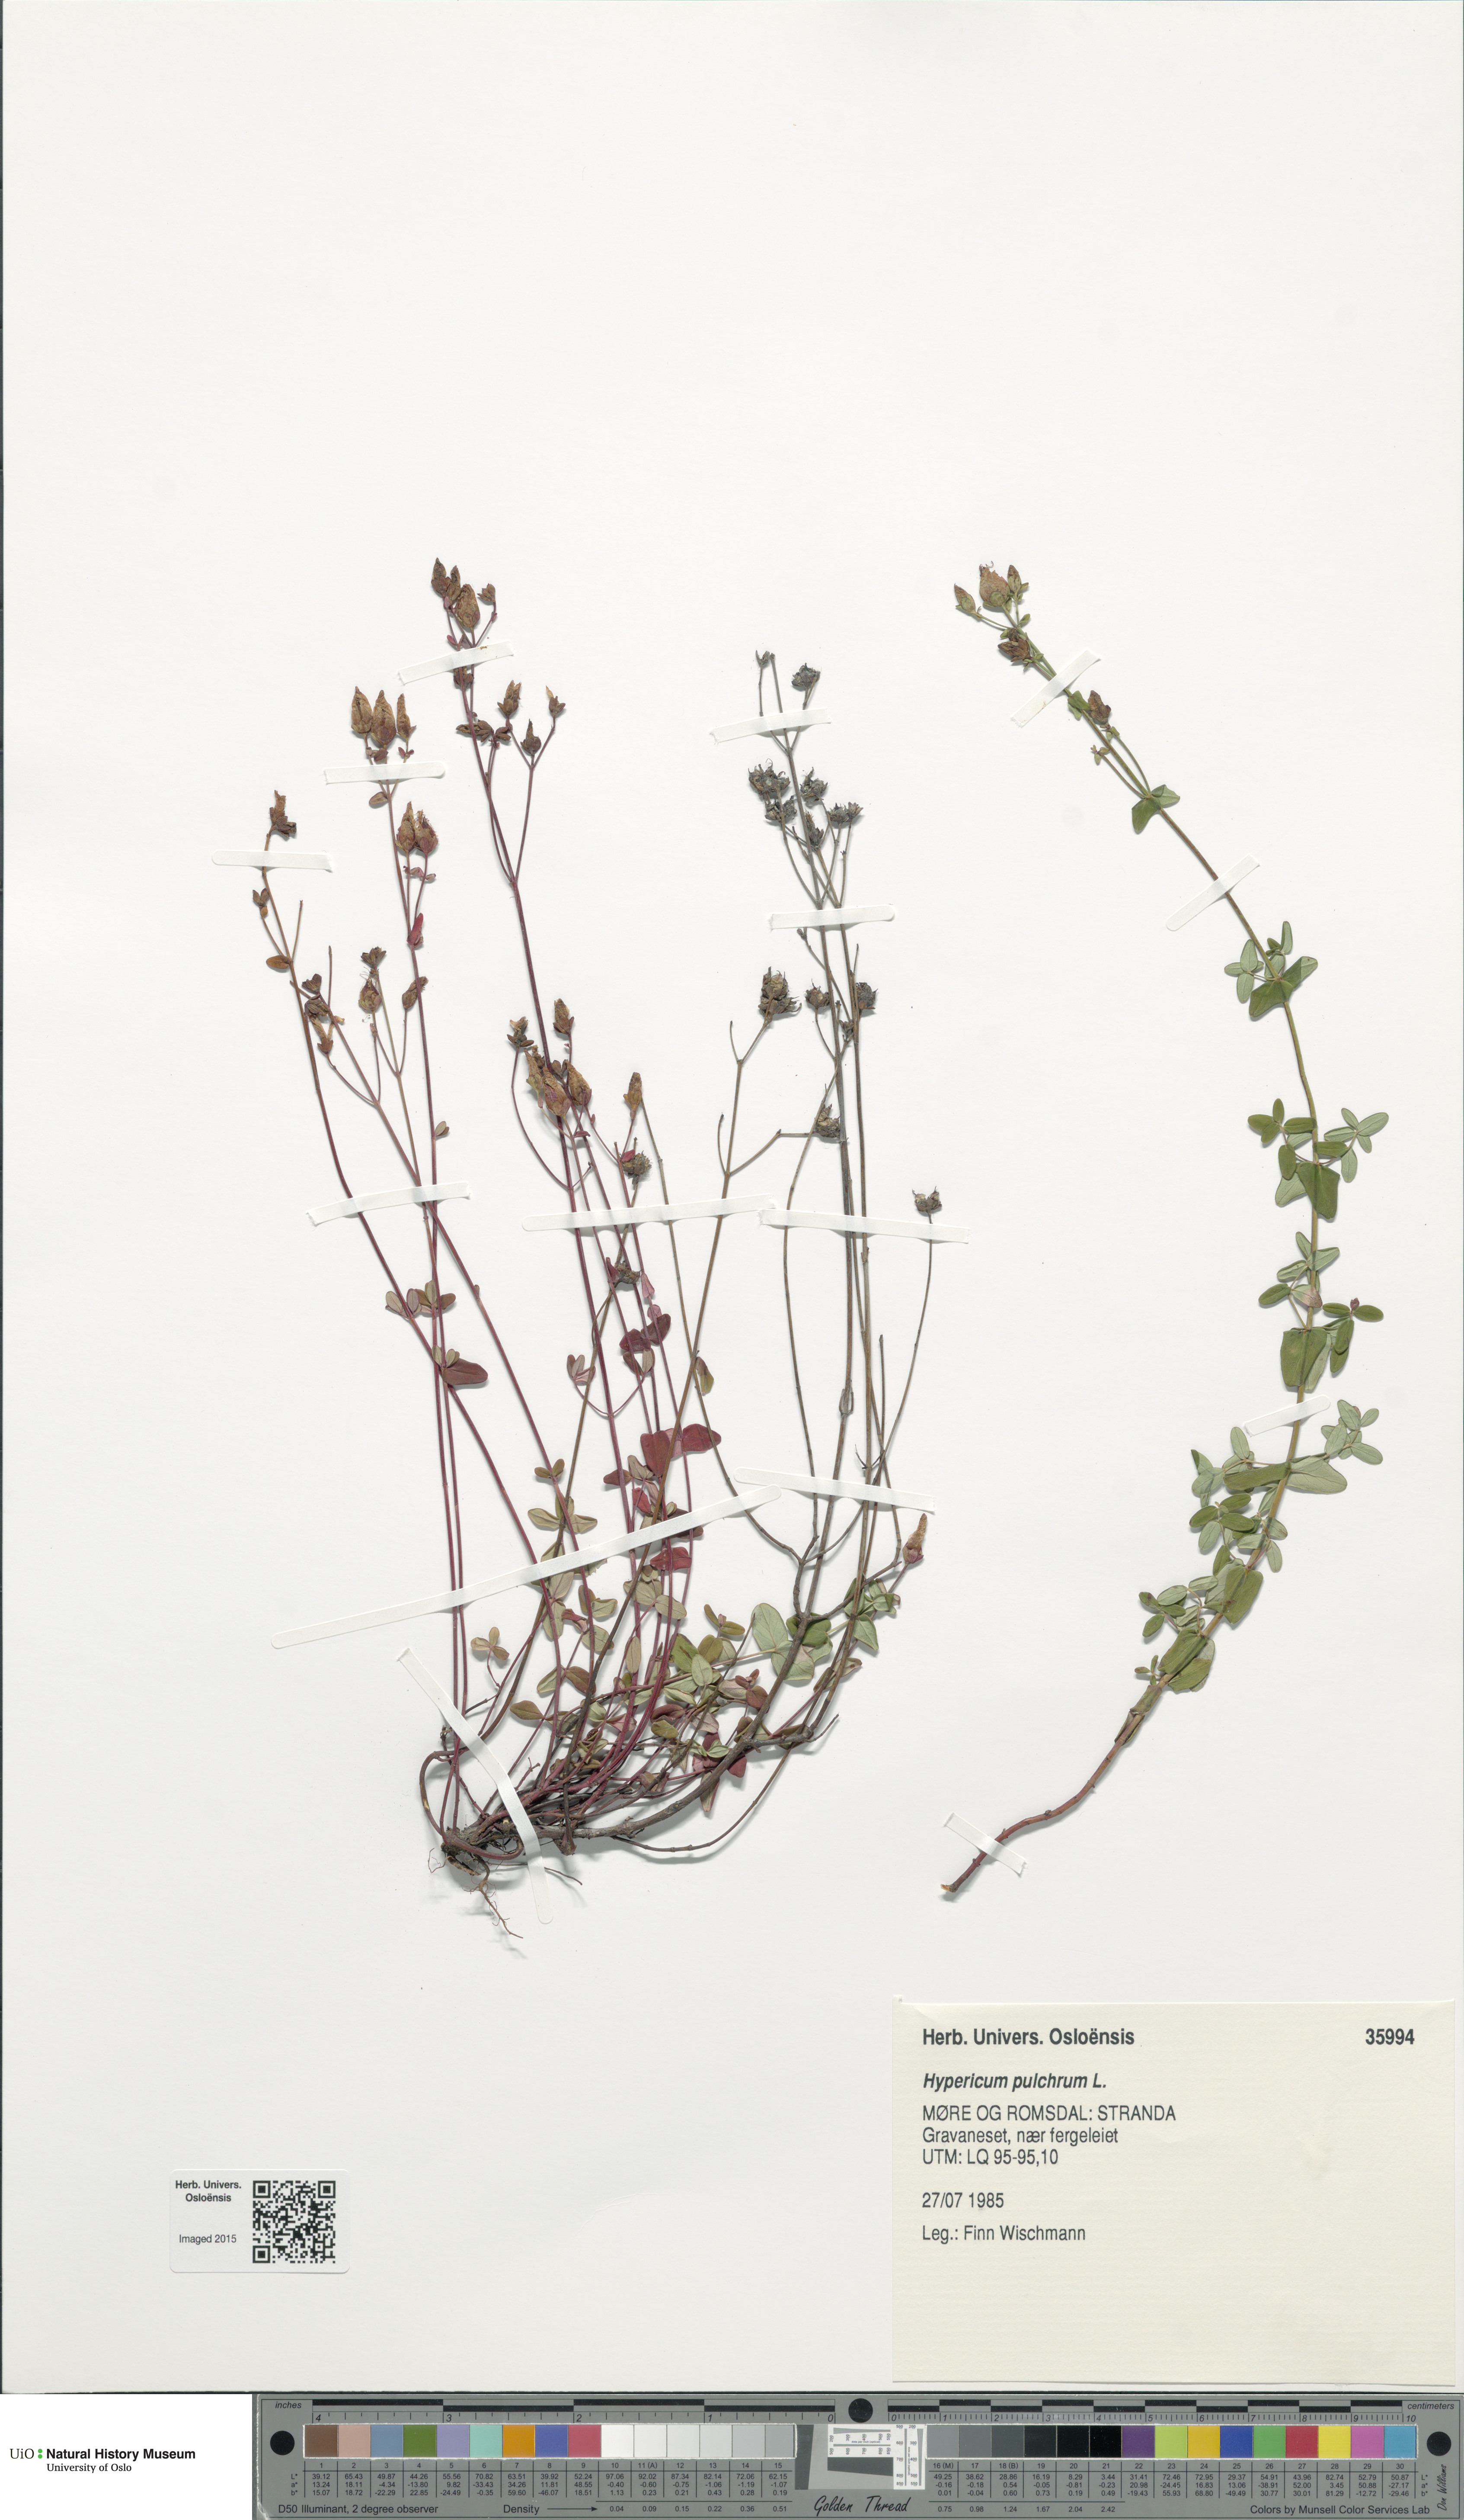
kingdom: Plantae
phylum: Tracheophyta
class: Magnoliopsida
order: Malpighiales
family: Hypericaceae
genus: Hypericum
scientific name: Hypericum pulchrum
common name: Slender st. john's-wort
